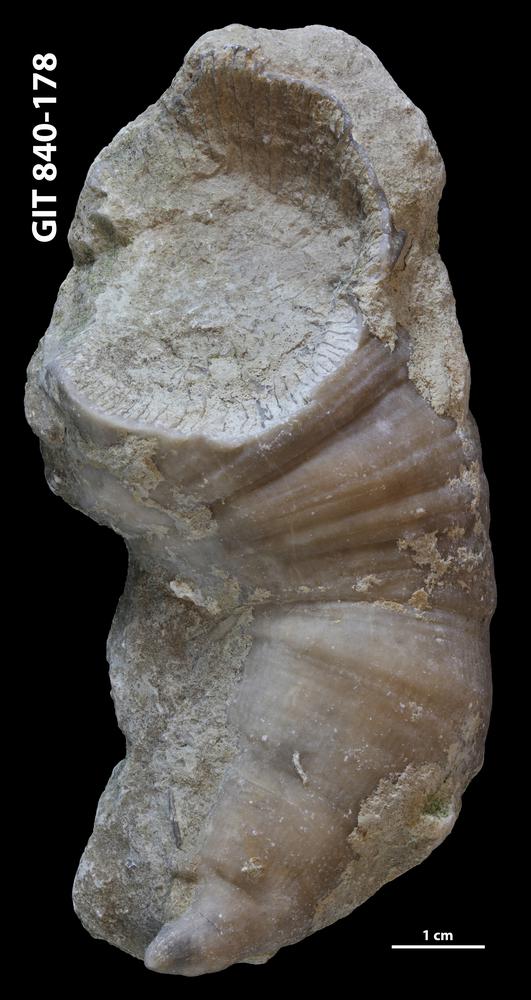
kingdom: Animalia
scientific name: Animalia
